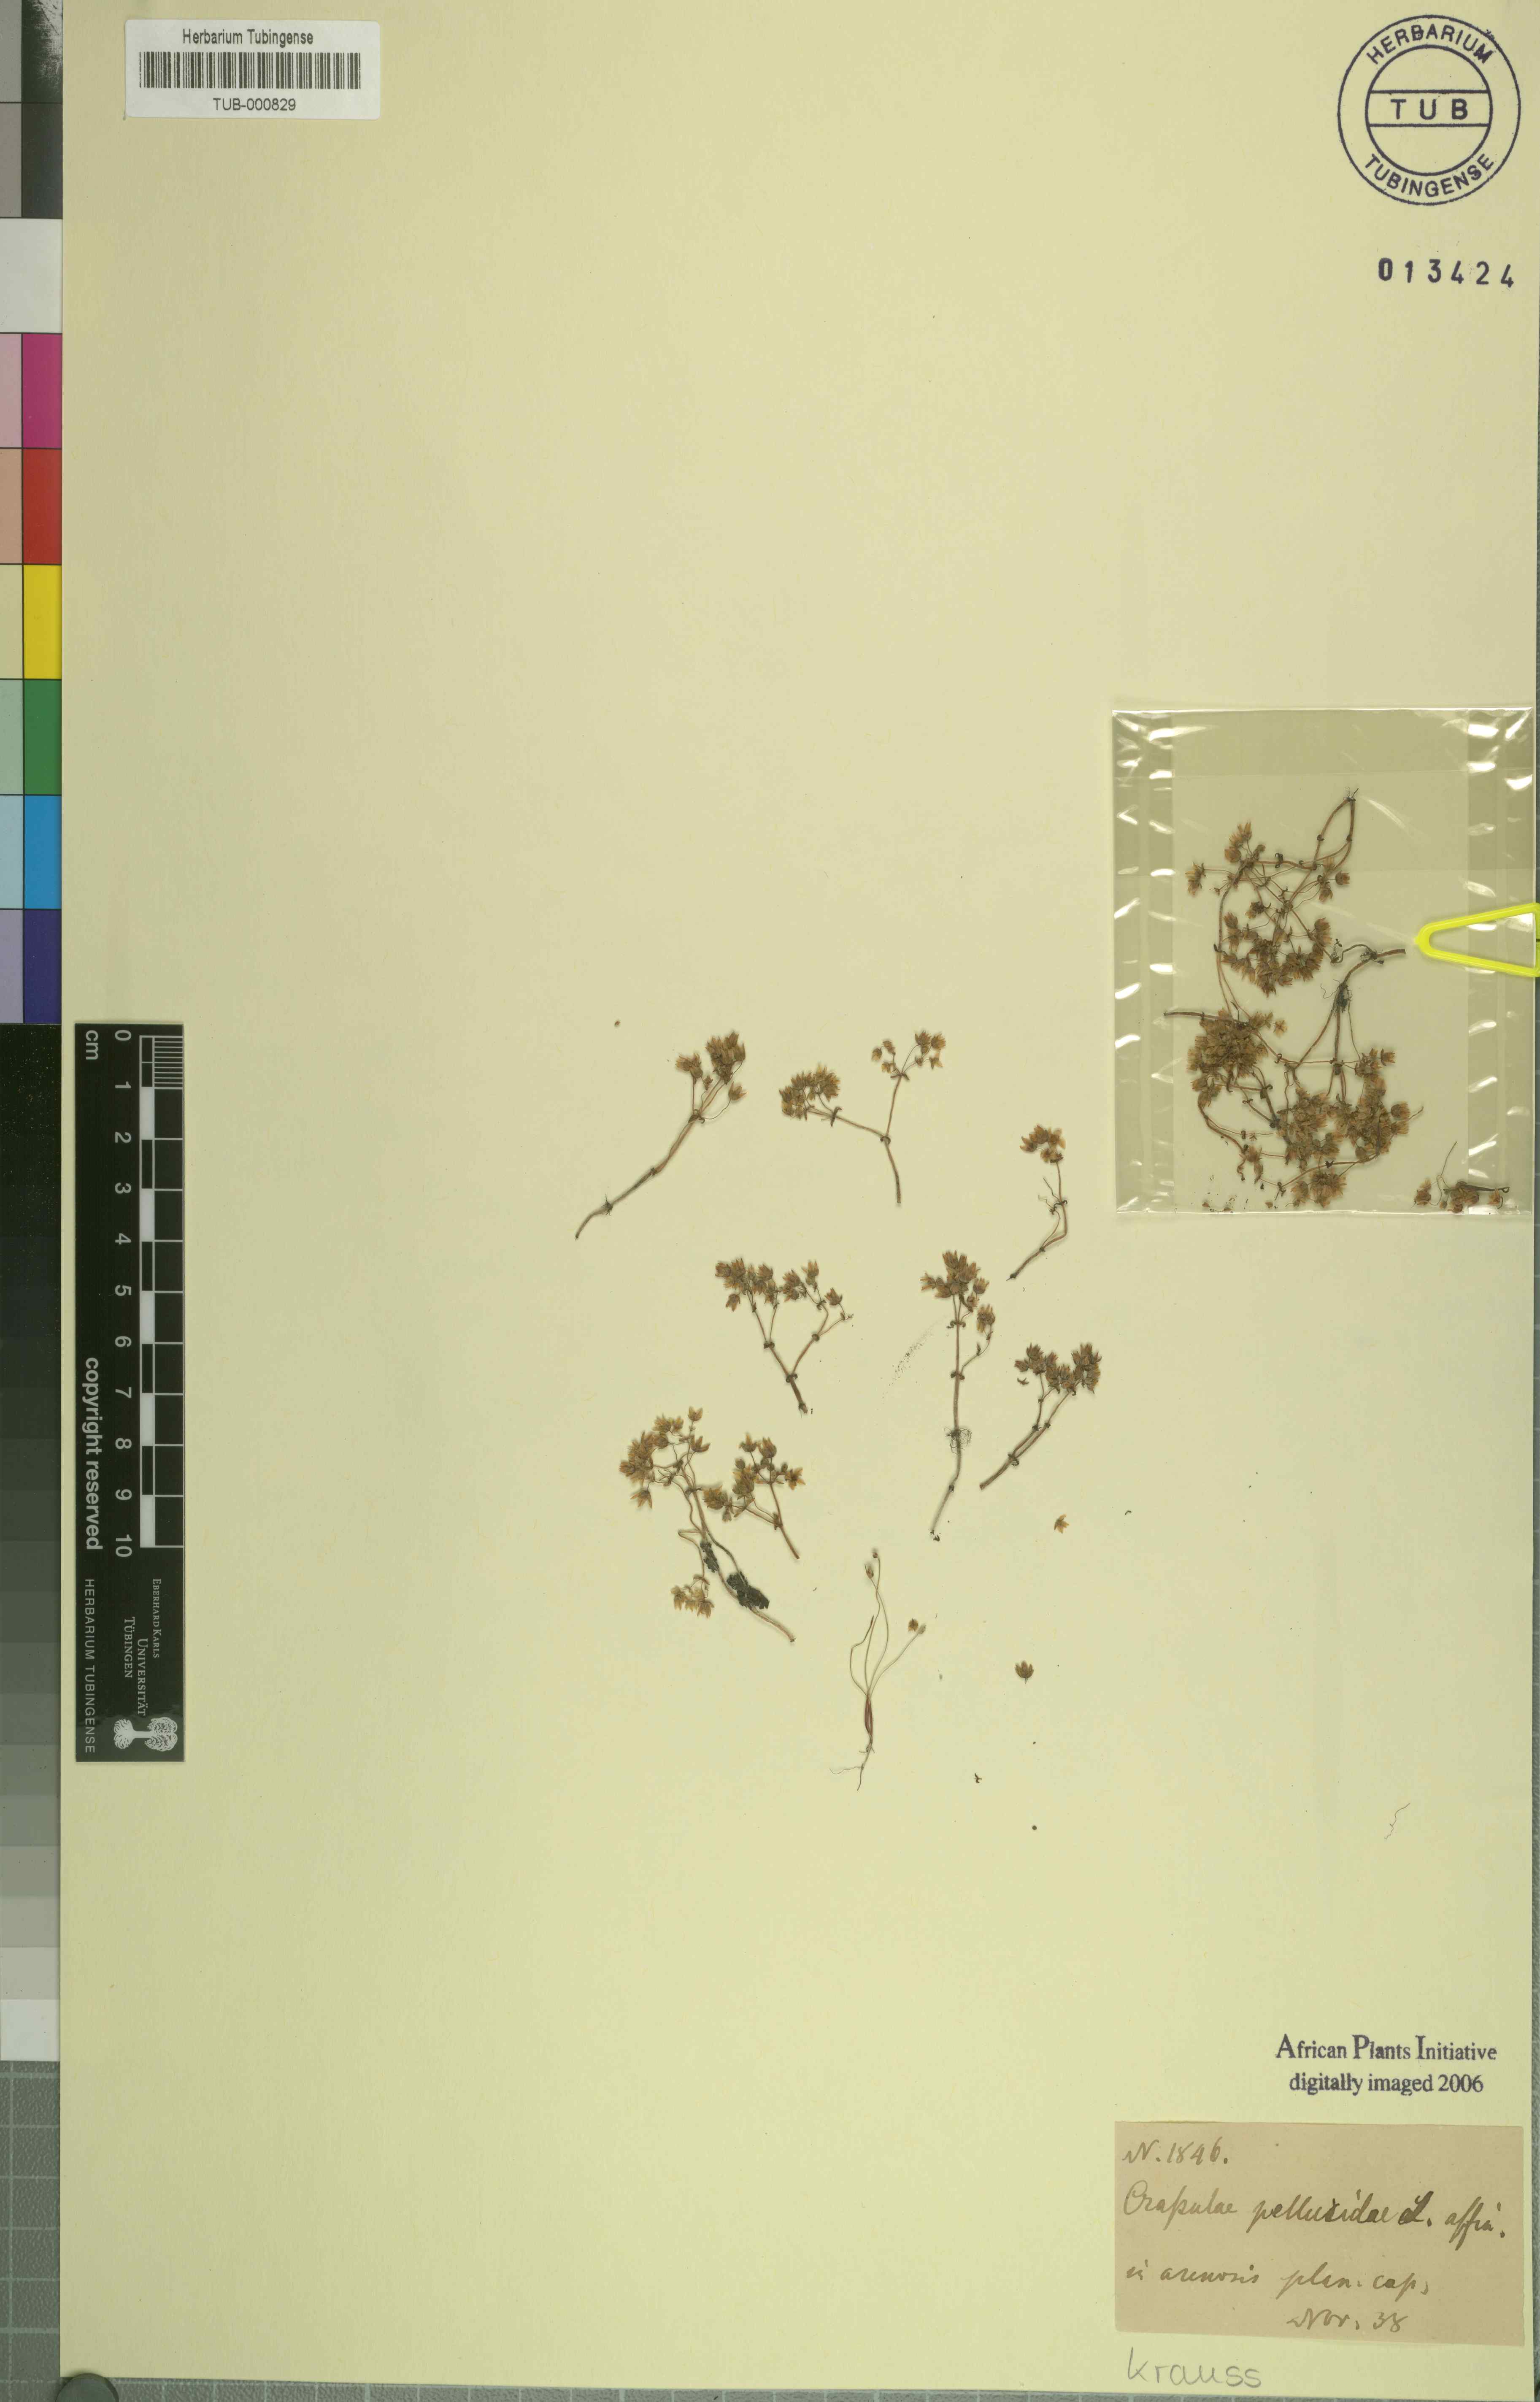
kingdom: Plantae
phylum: Tracheophyta
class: Magnoliopsida
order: Saxifragales
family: Crassulaceae
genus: Crassula
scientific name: Crassula pellucida
